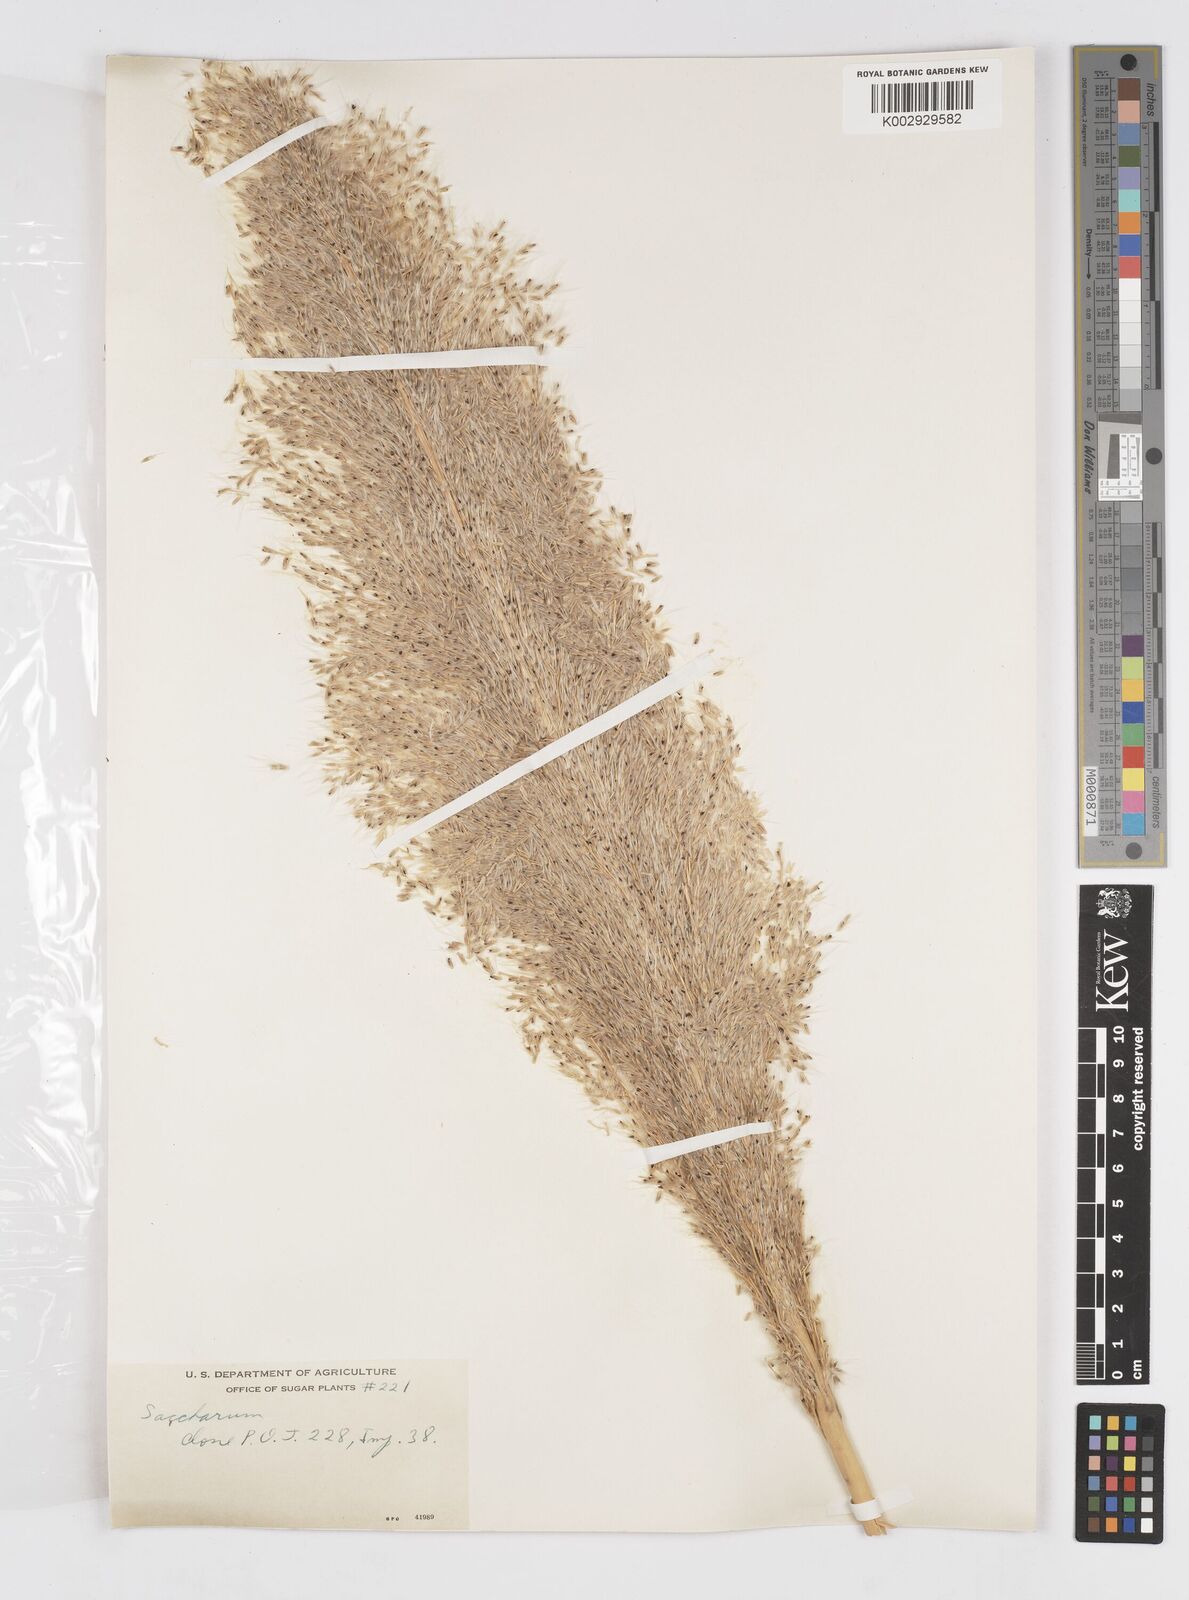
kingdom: Plantae
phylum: Tracheophyta
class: Liliopsida
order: Poales
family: Poaceae
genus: Saccharum
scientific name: Saccharum officinarum
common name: Sugarcane
